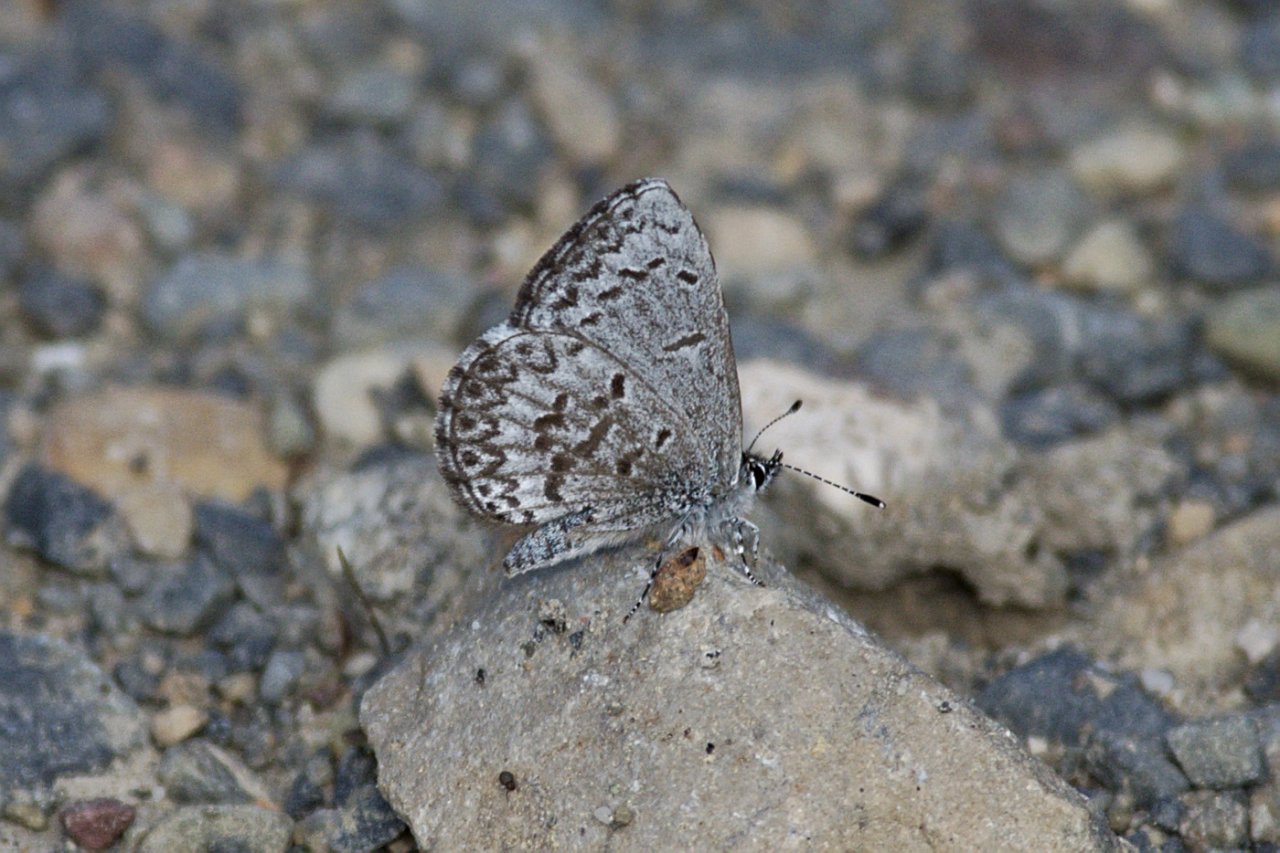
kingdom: Animalia
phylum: Arthropoda
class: Insecta
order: Lepidoptera
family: Lycaenidae
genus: Celastrina
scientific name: Celastrina lucia
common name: Northern Spring Azure
